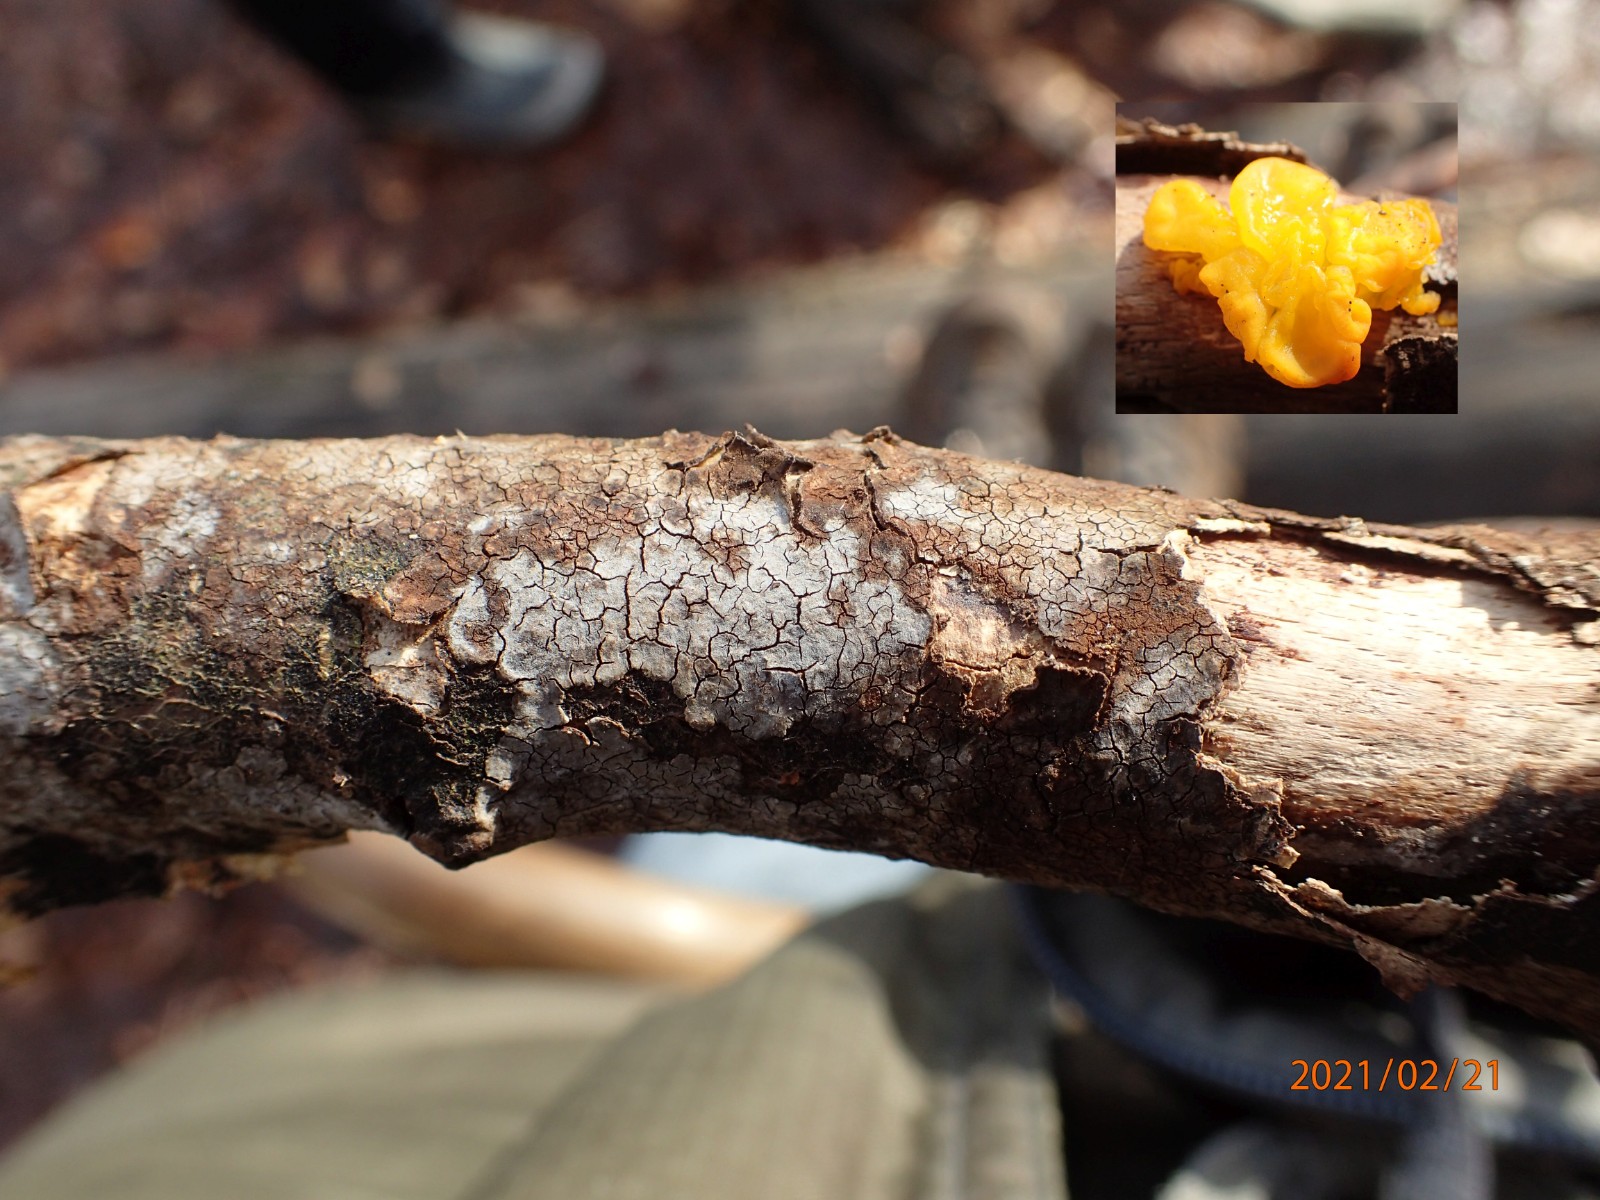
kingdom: Fungi
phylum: Basidiomycota
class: Agaricomycetes
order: Russulales
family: Peniophoraceae
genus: Peniophora
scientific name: Peniophora
